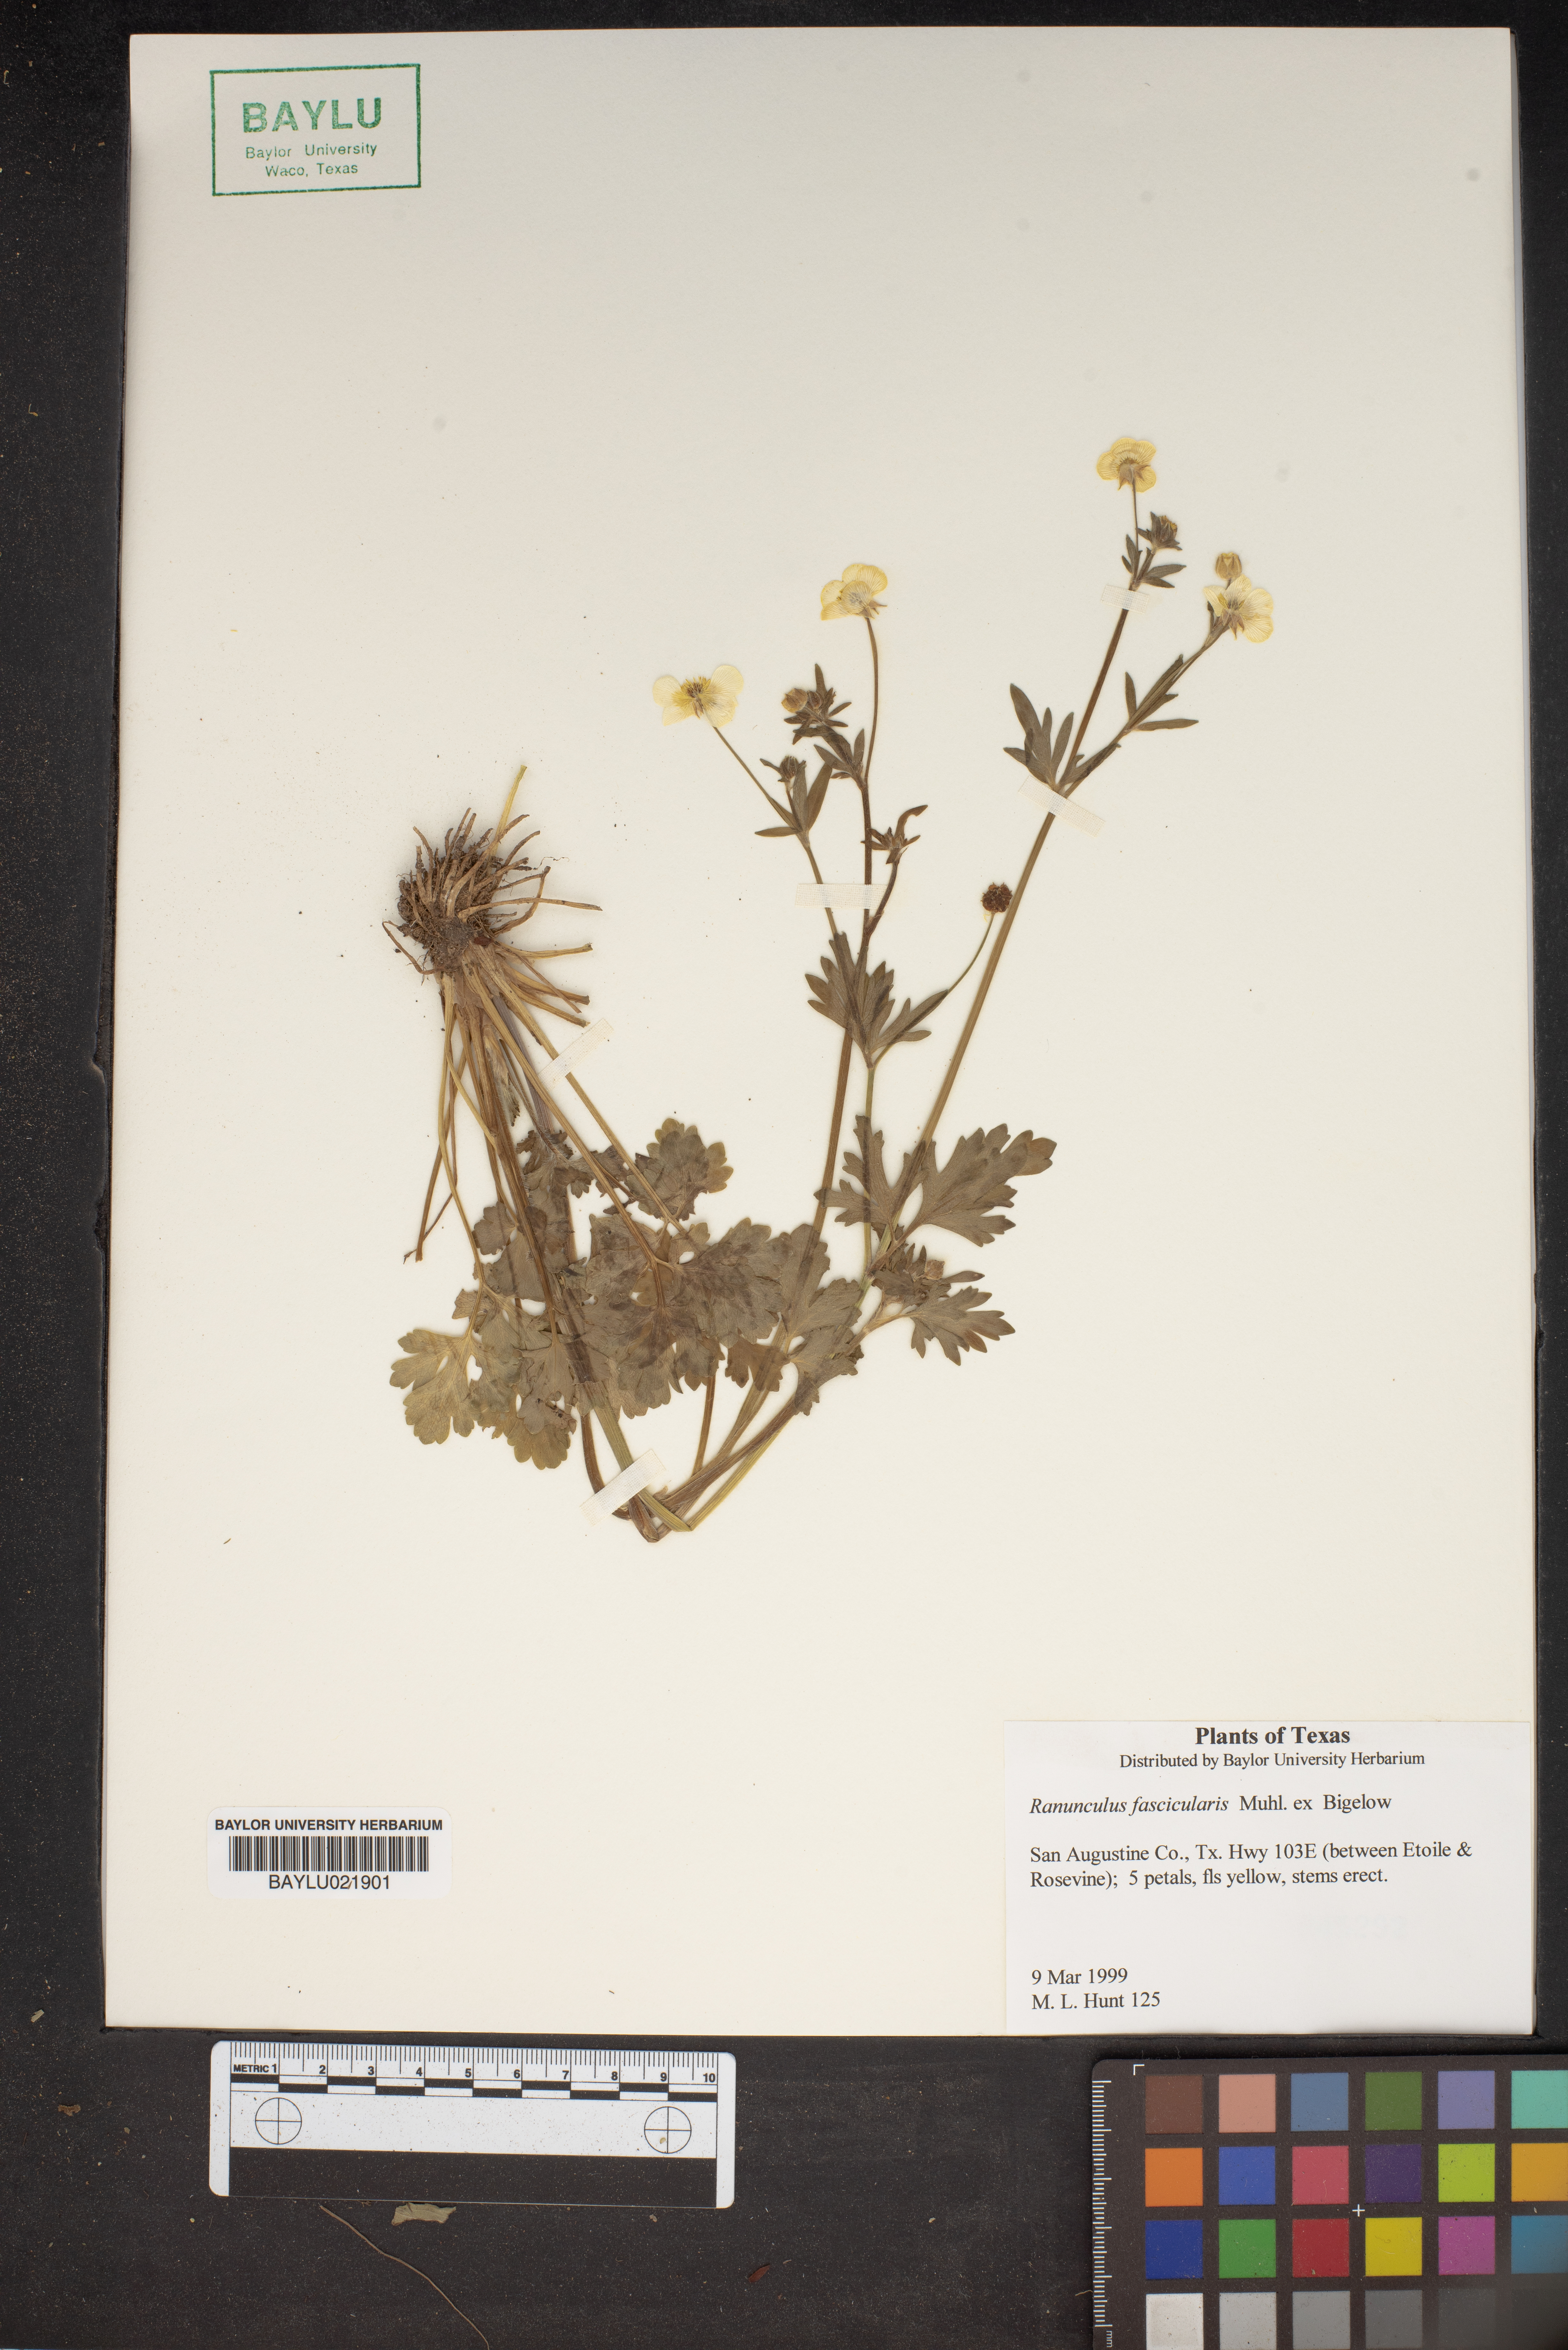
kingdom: Plantae
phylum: Tracheophyta
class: Magnoliopsida
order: Ranunculales
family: Ranunculaceae
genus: Ranunculus
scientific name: Ranunculus fascicularis
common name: Early buttercup
